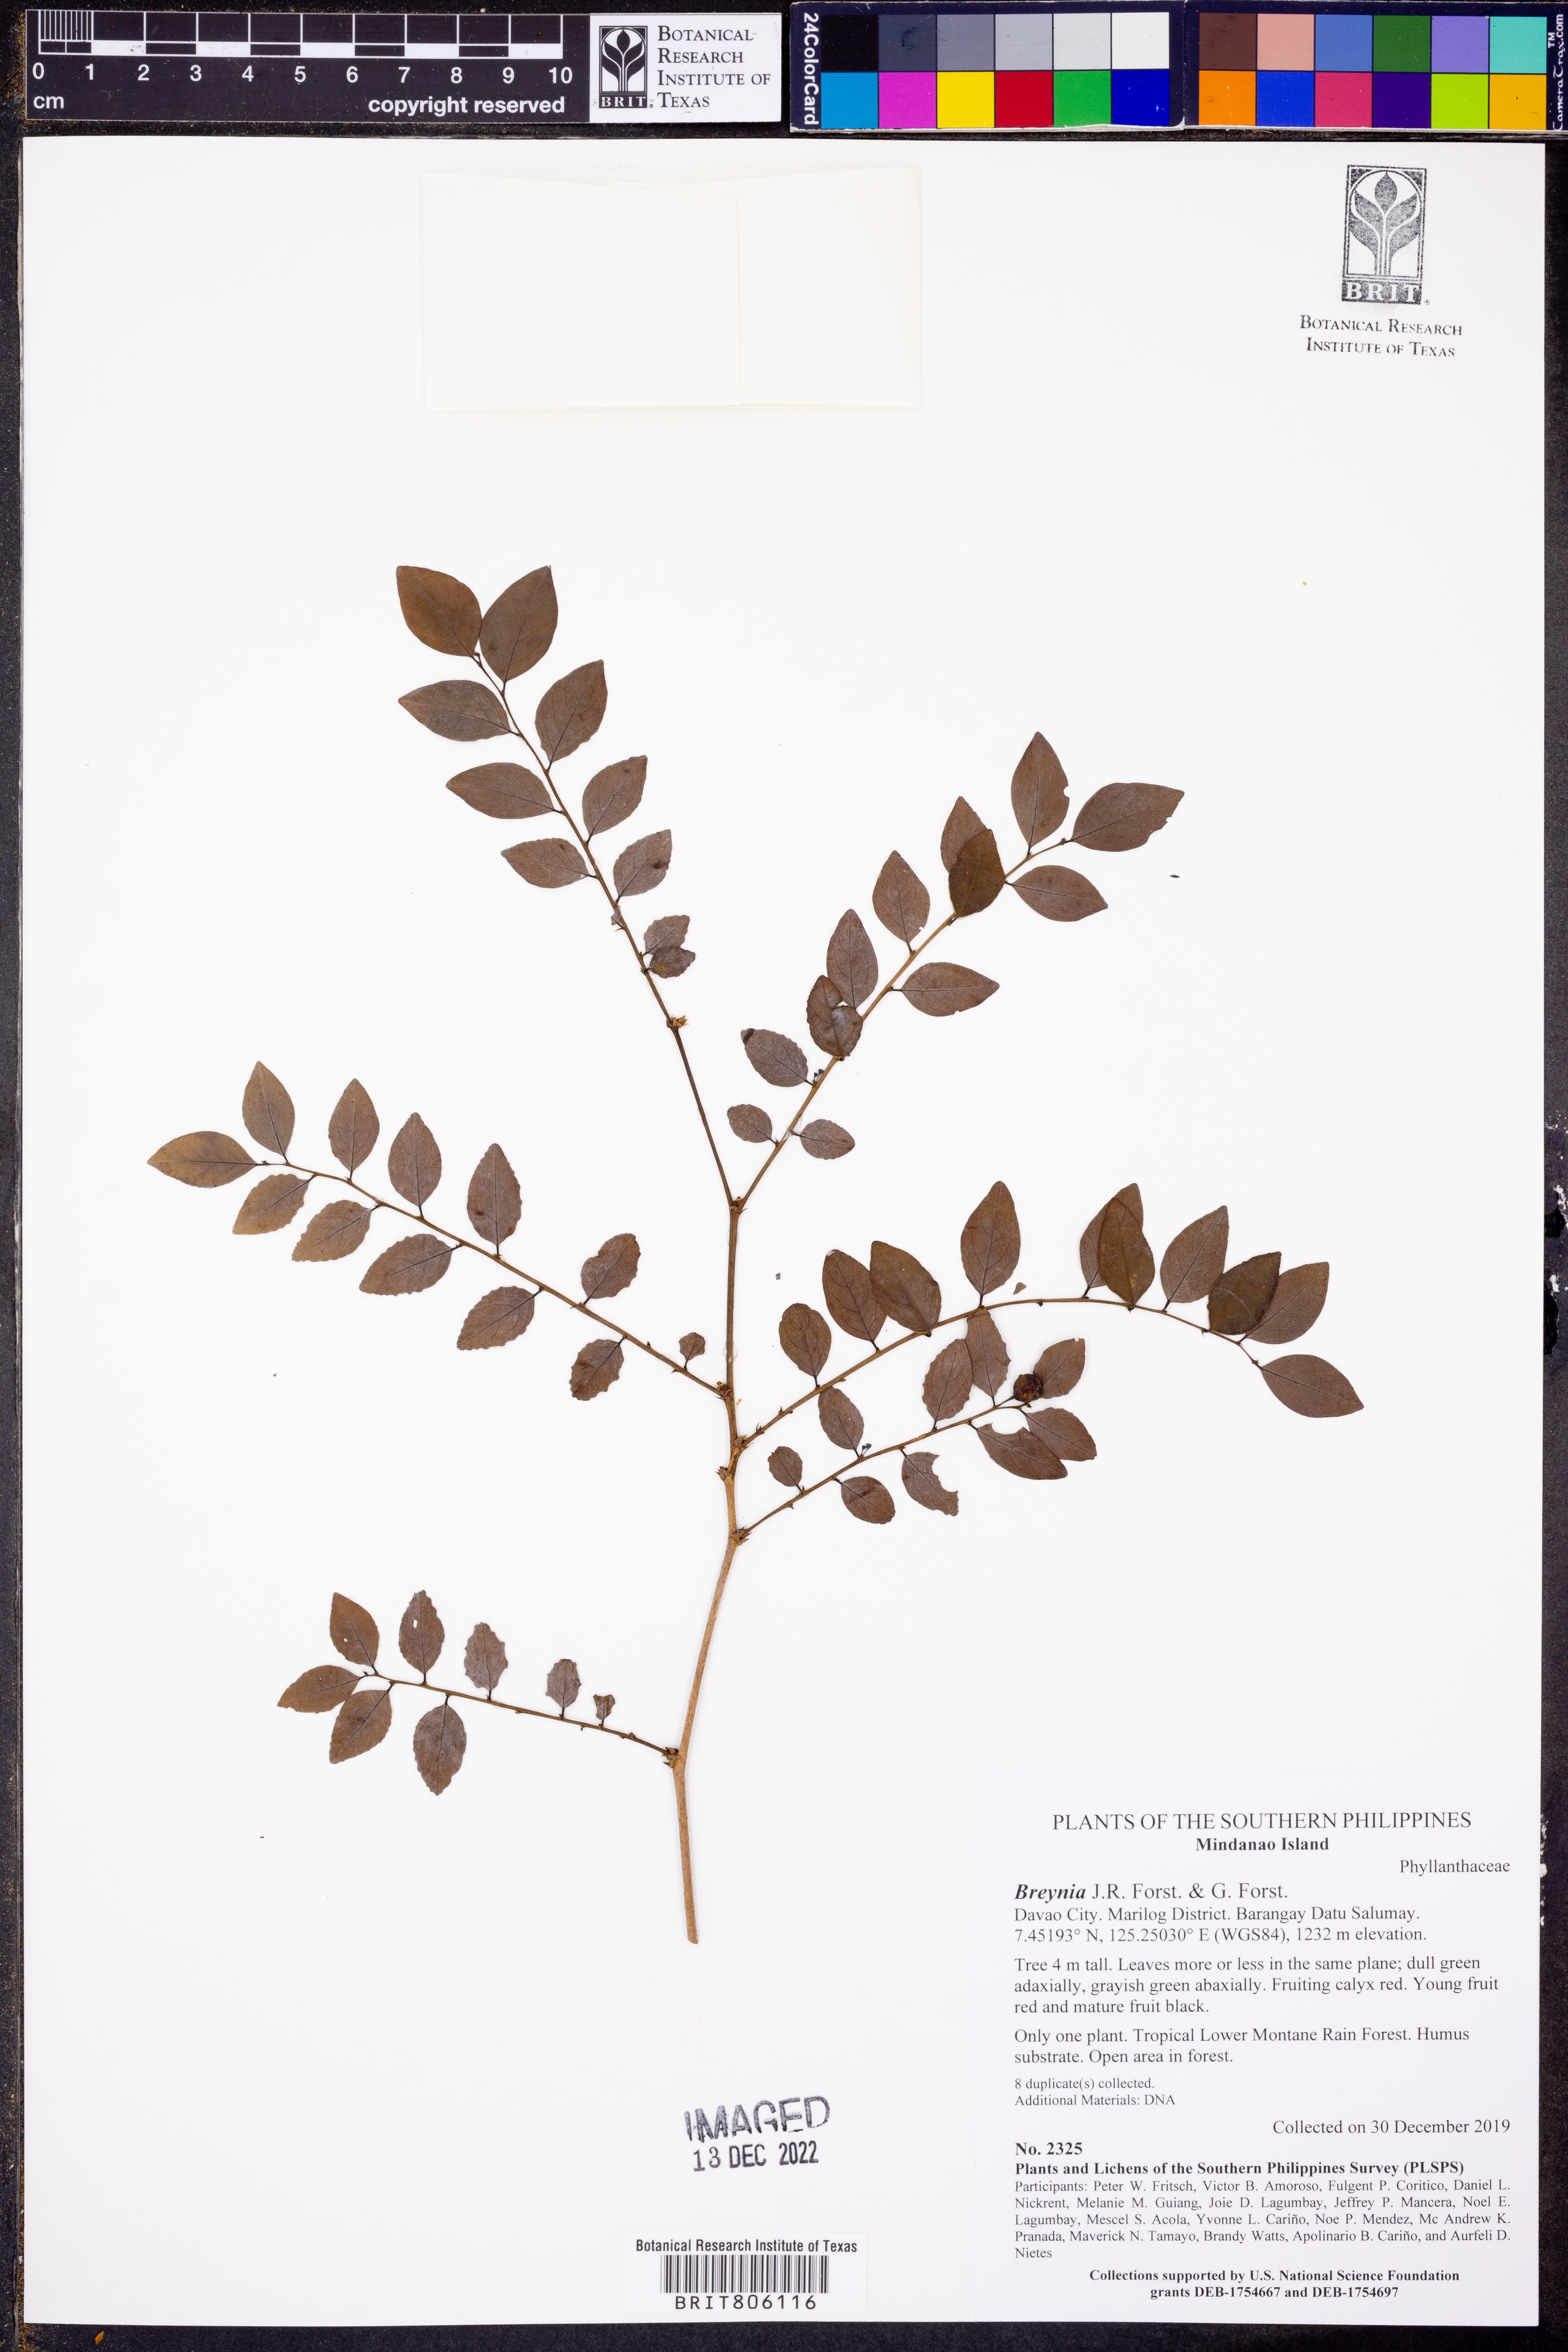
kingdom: Plantae
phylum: Tracheophyta
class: Magnoliopsida
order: Cucurbitales
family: Begoniaceae
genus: Begonia
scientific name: Begonia
